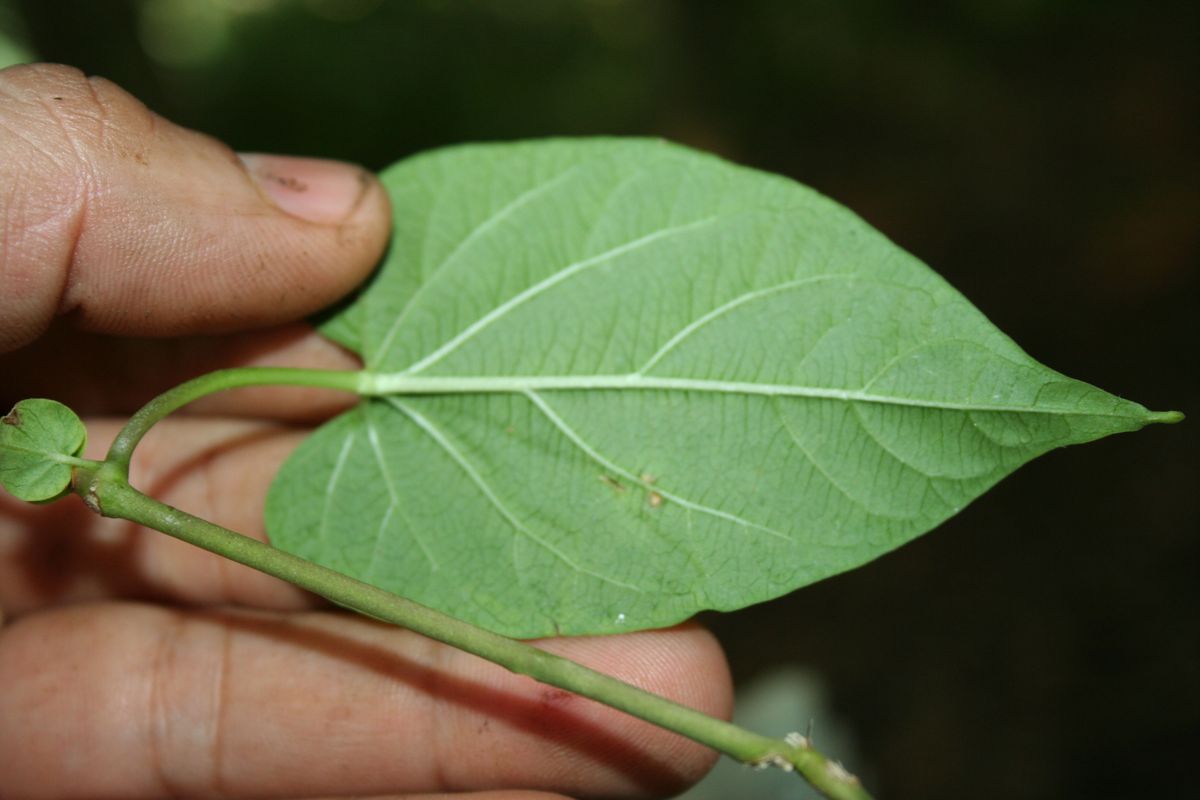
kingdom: Plantae
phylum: Tracheophyta
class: Magnoliopsida
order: Gentianales
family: Apocynaceae
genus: Cynanchum
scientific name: Cynanchum rensonii
